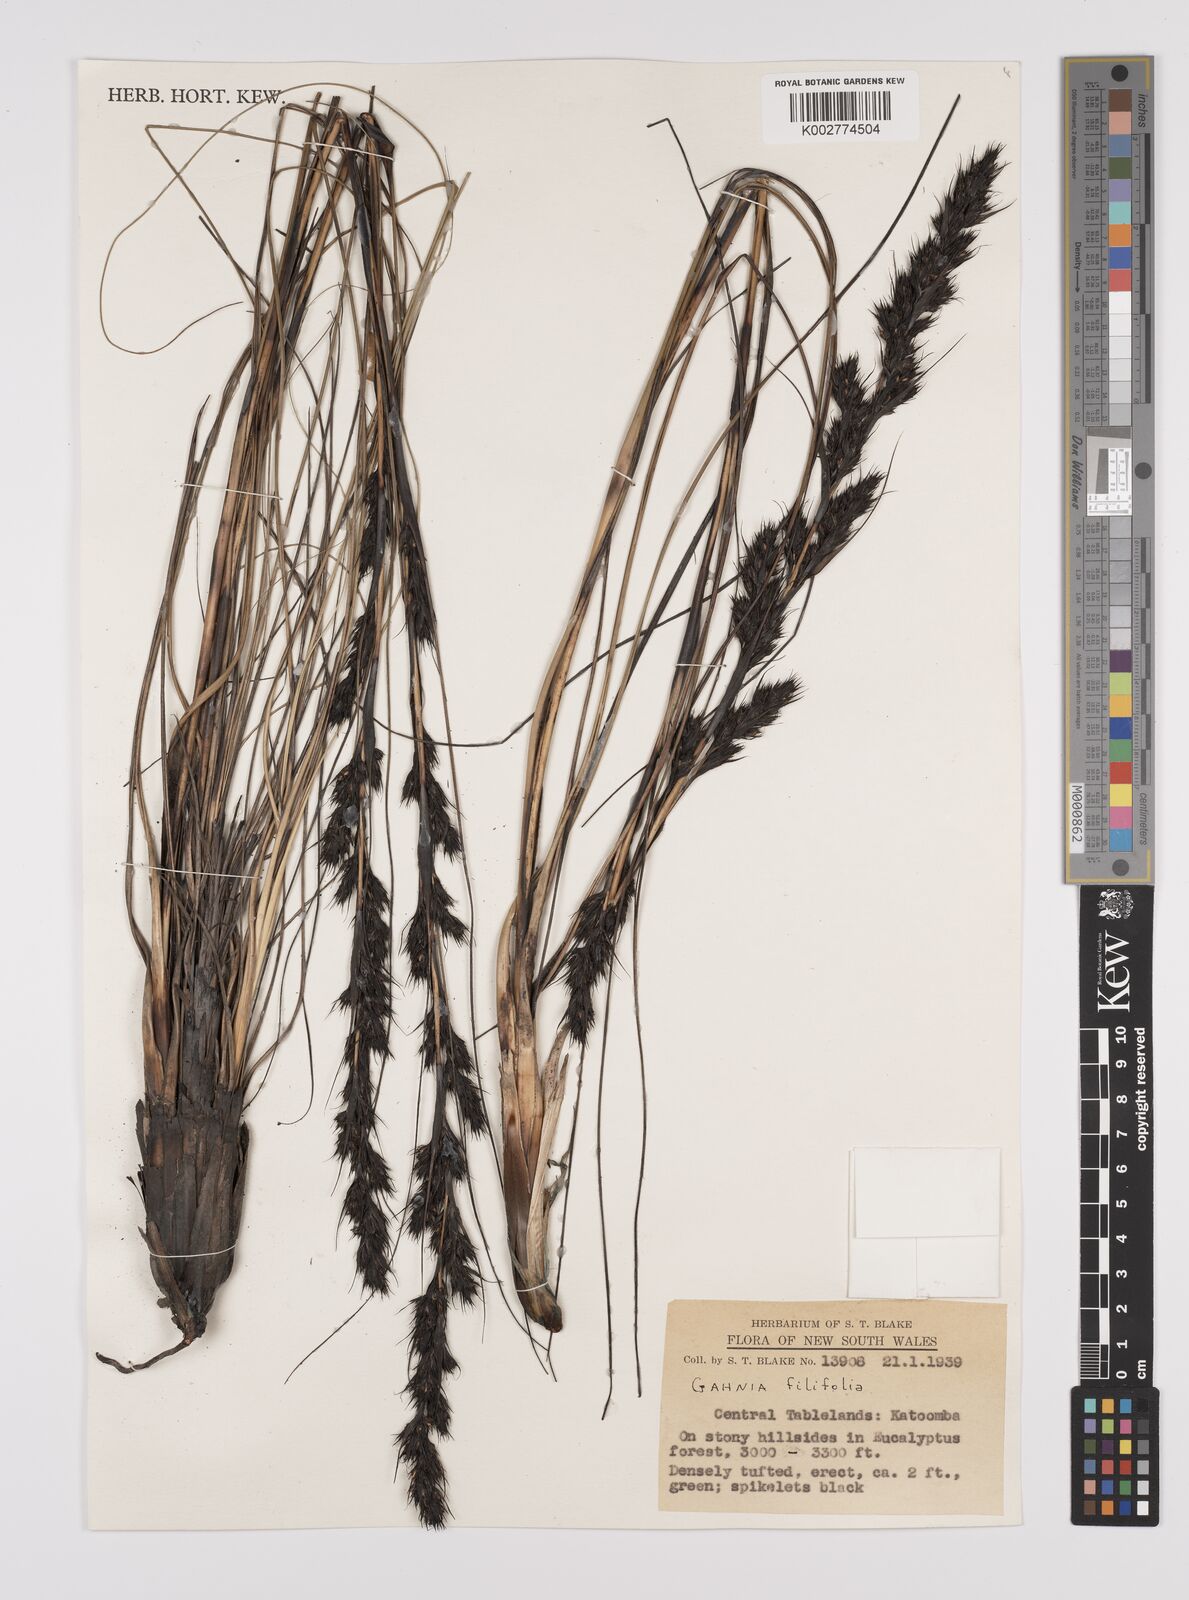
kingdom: Plantae
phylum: Tracheophyta
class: Liliopsida
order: Poales
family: Cyperaceae
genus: Gahnia
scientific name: Gahnia filifolia
